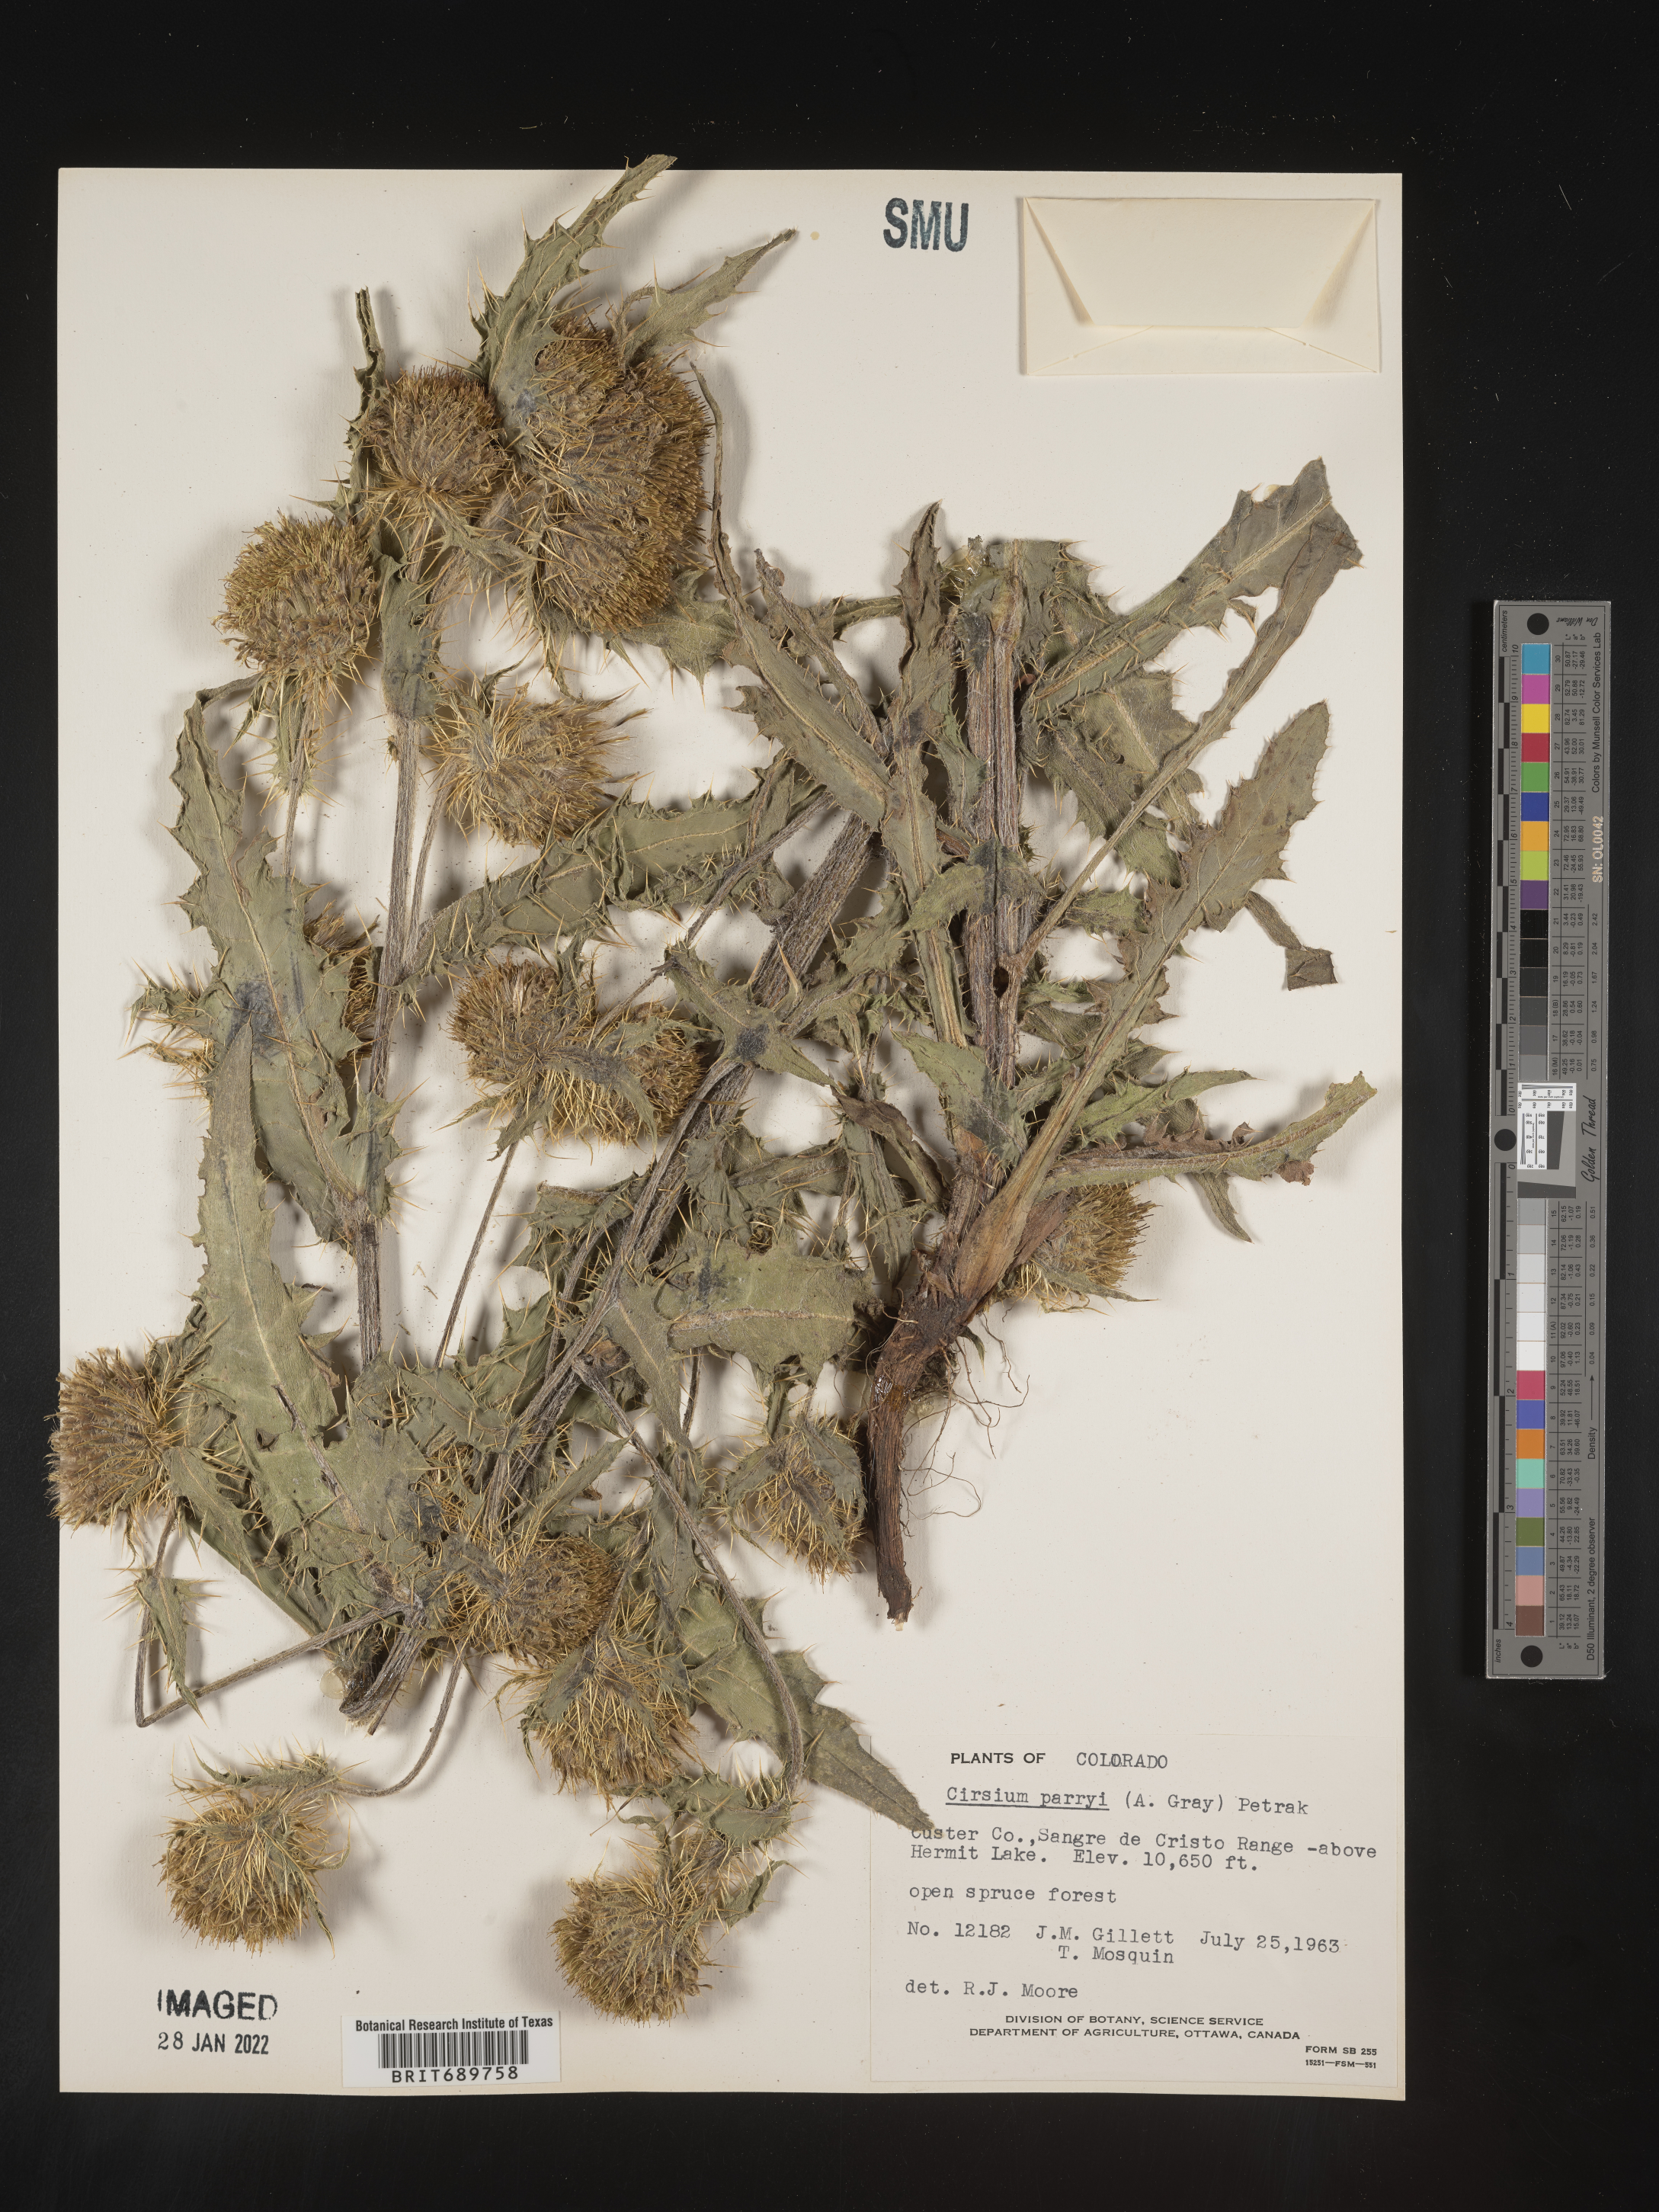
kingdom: Plantae
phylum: Tracheophyta
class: Magnoliopsida
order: Asterales
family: Asteraceae
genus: Cirsium
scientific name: Cirsium parryi
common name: Parry's thistle
